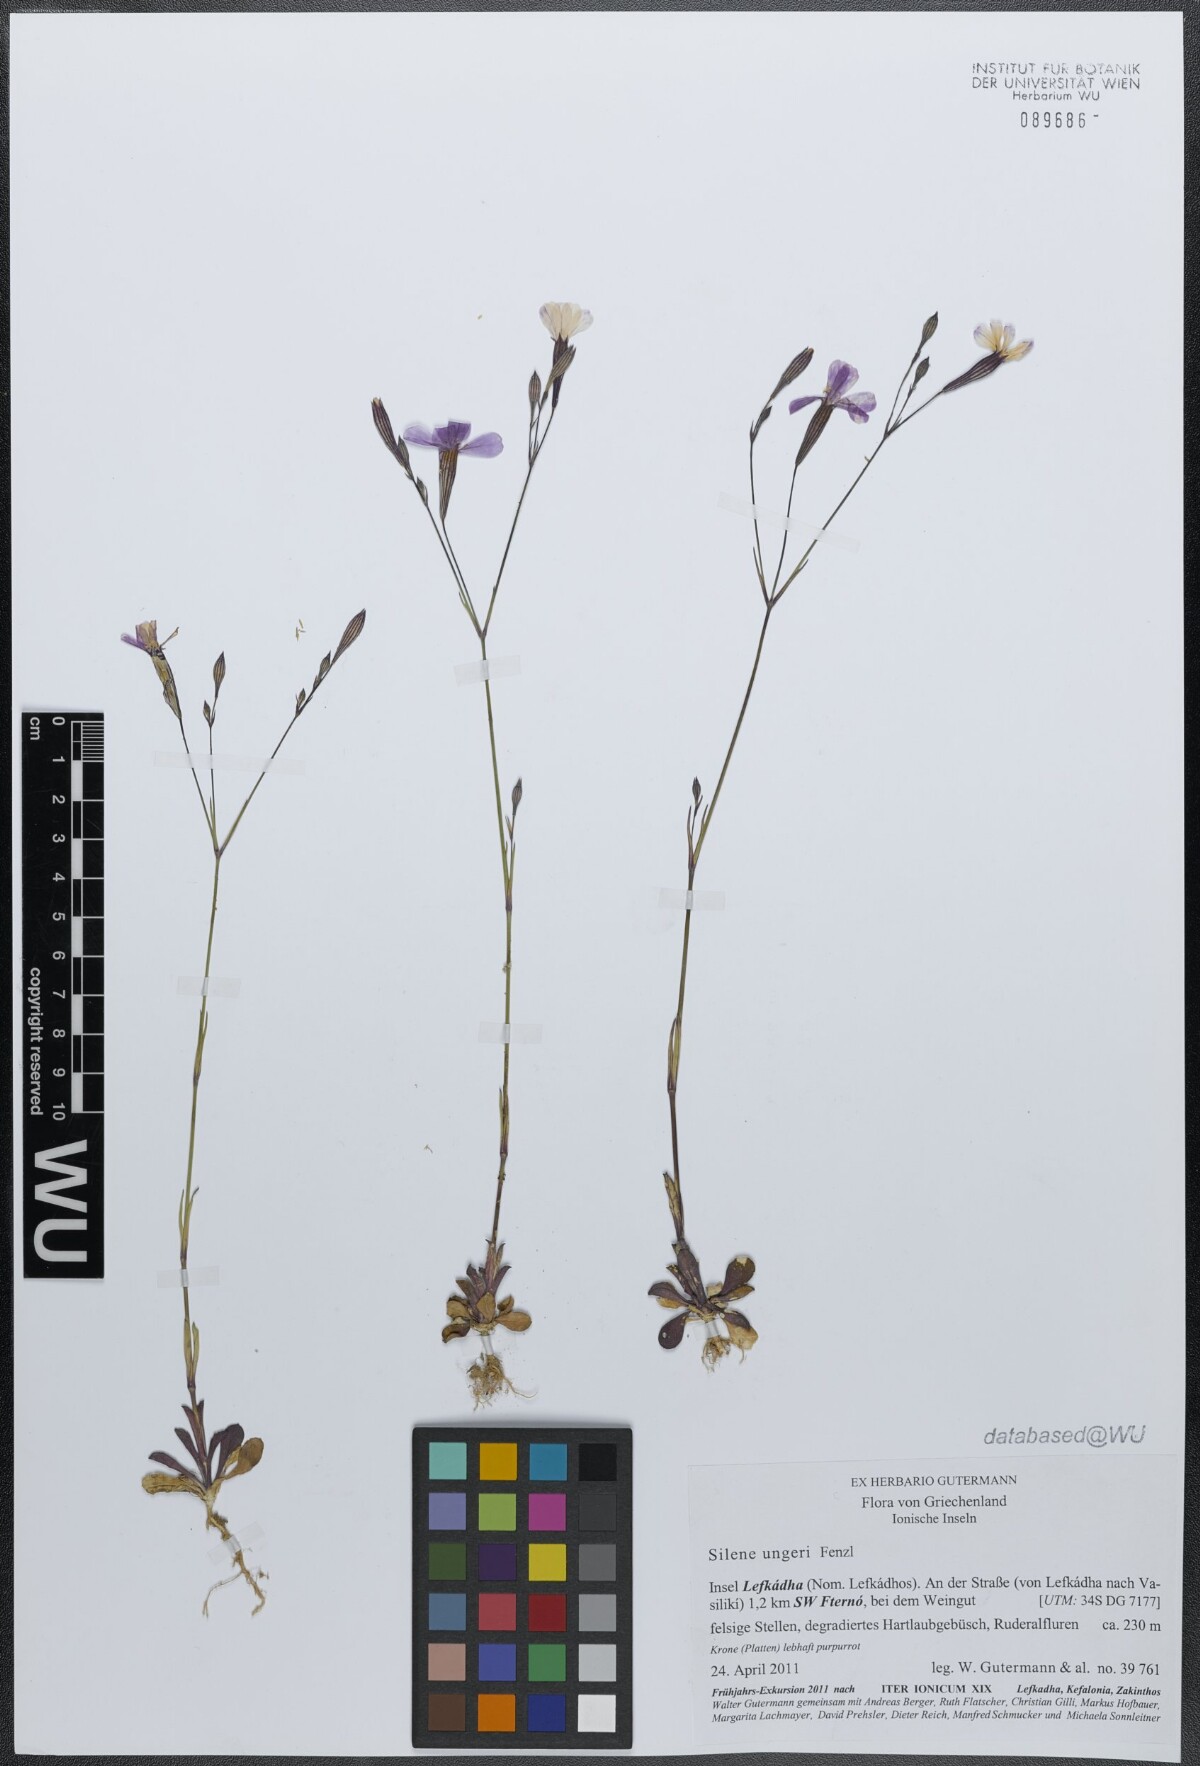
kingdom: Plantae
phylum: Tracheophyta
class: Magnoliopsida
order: Caryophyllales
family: Caryophyllaceae
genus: Silene
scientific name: Silene ungeri
